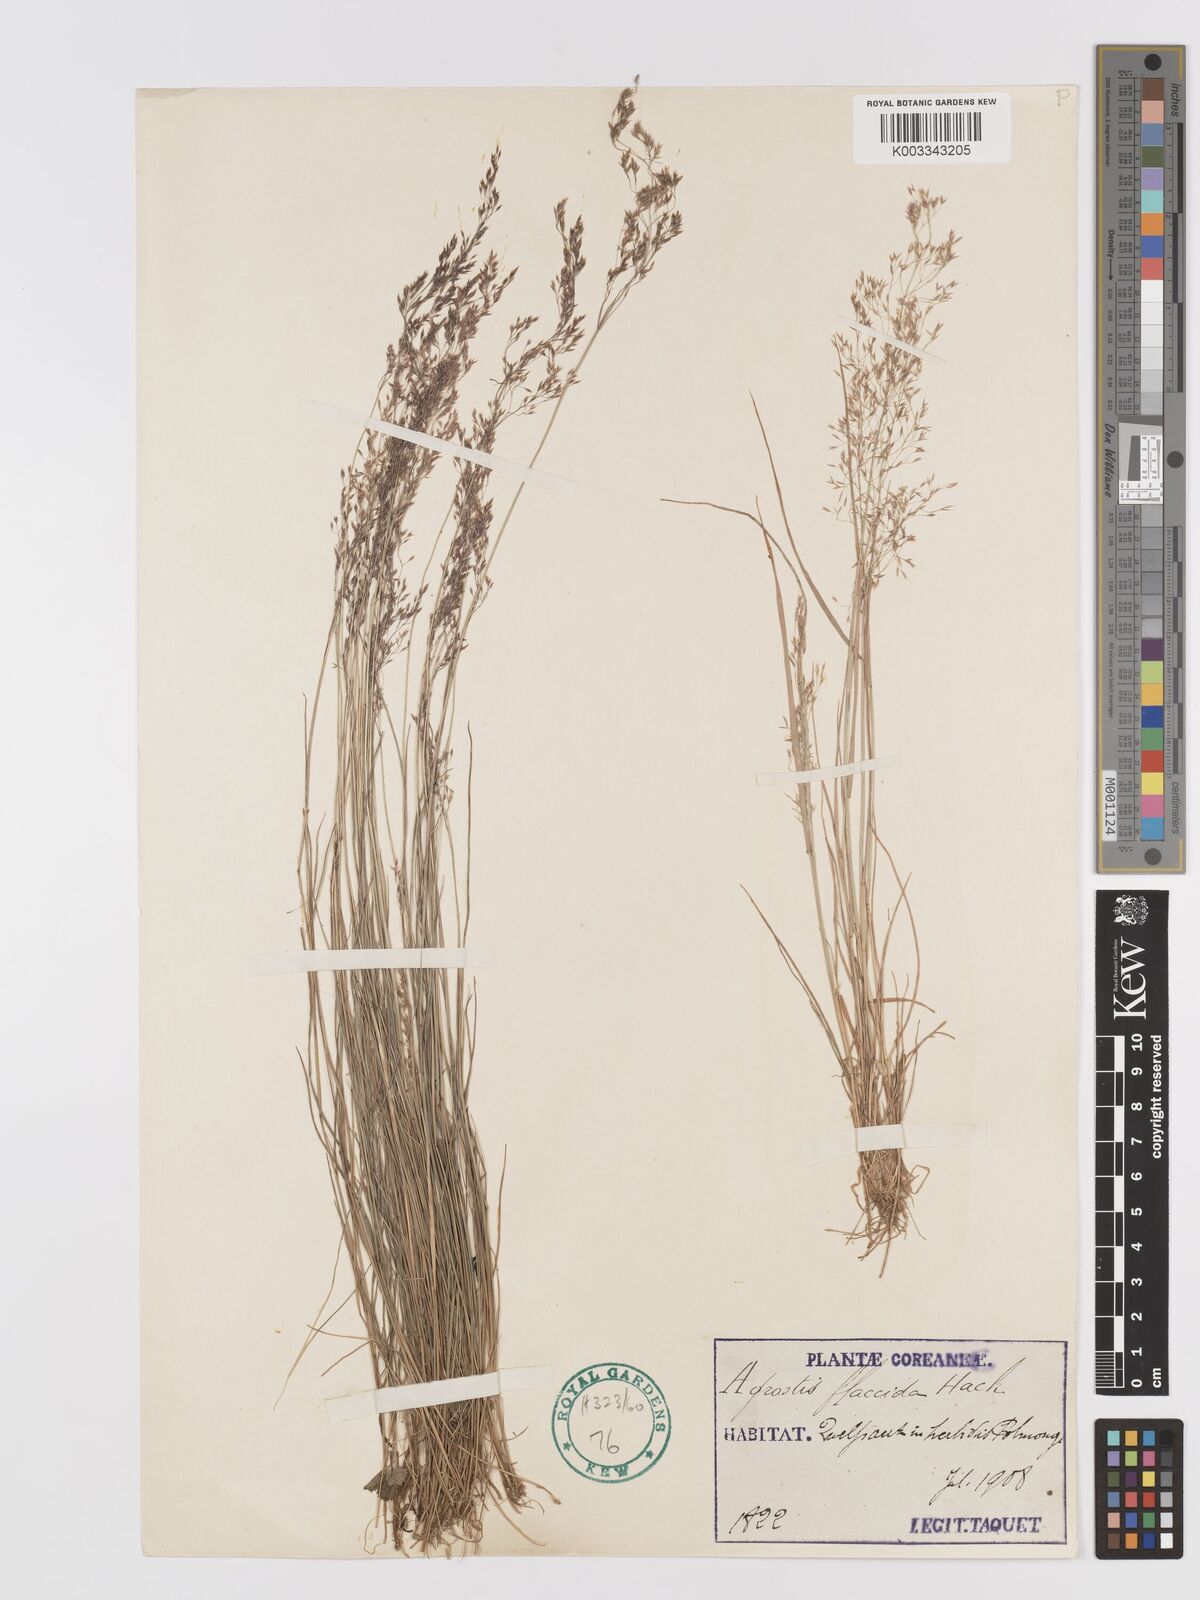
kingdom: Plantae
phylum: Tracheophyta
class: Liliopsida
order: Poales
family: Poaceae
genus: Agrostis
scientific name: Agrostis flaccida
